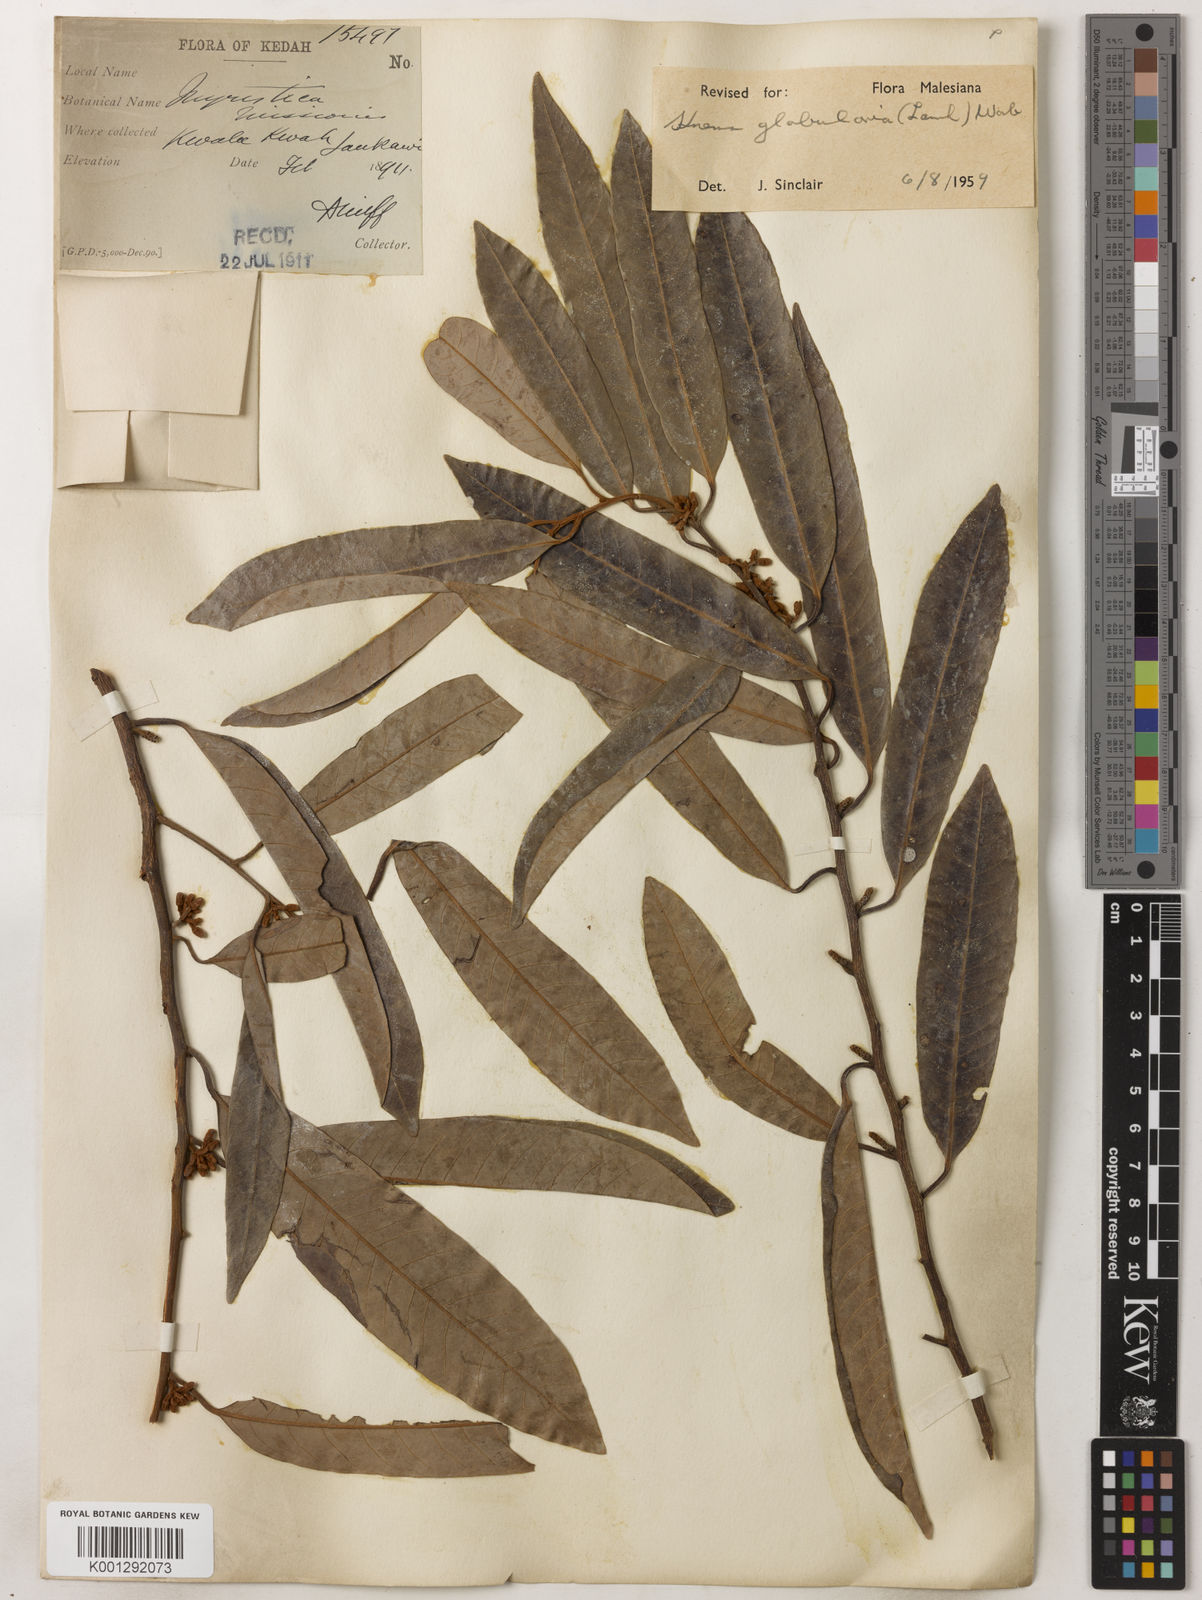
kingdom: Plantae
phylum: Tracheophyta
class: Magnoliopsida
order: Magnoliales
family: Myristicaceae
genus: Knema
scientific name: Knema globularia
